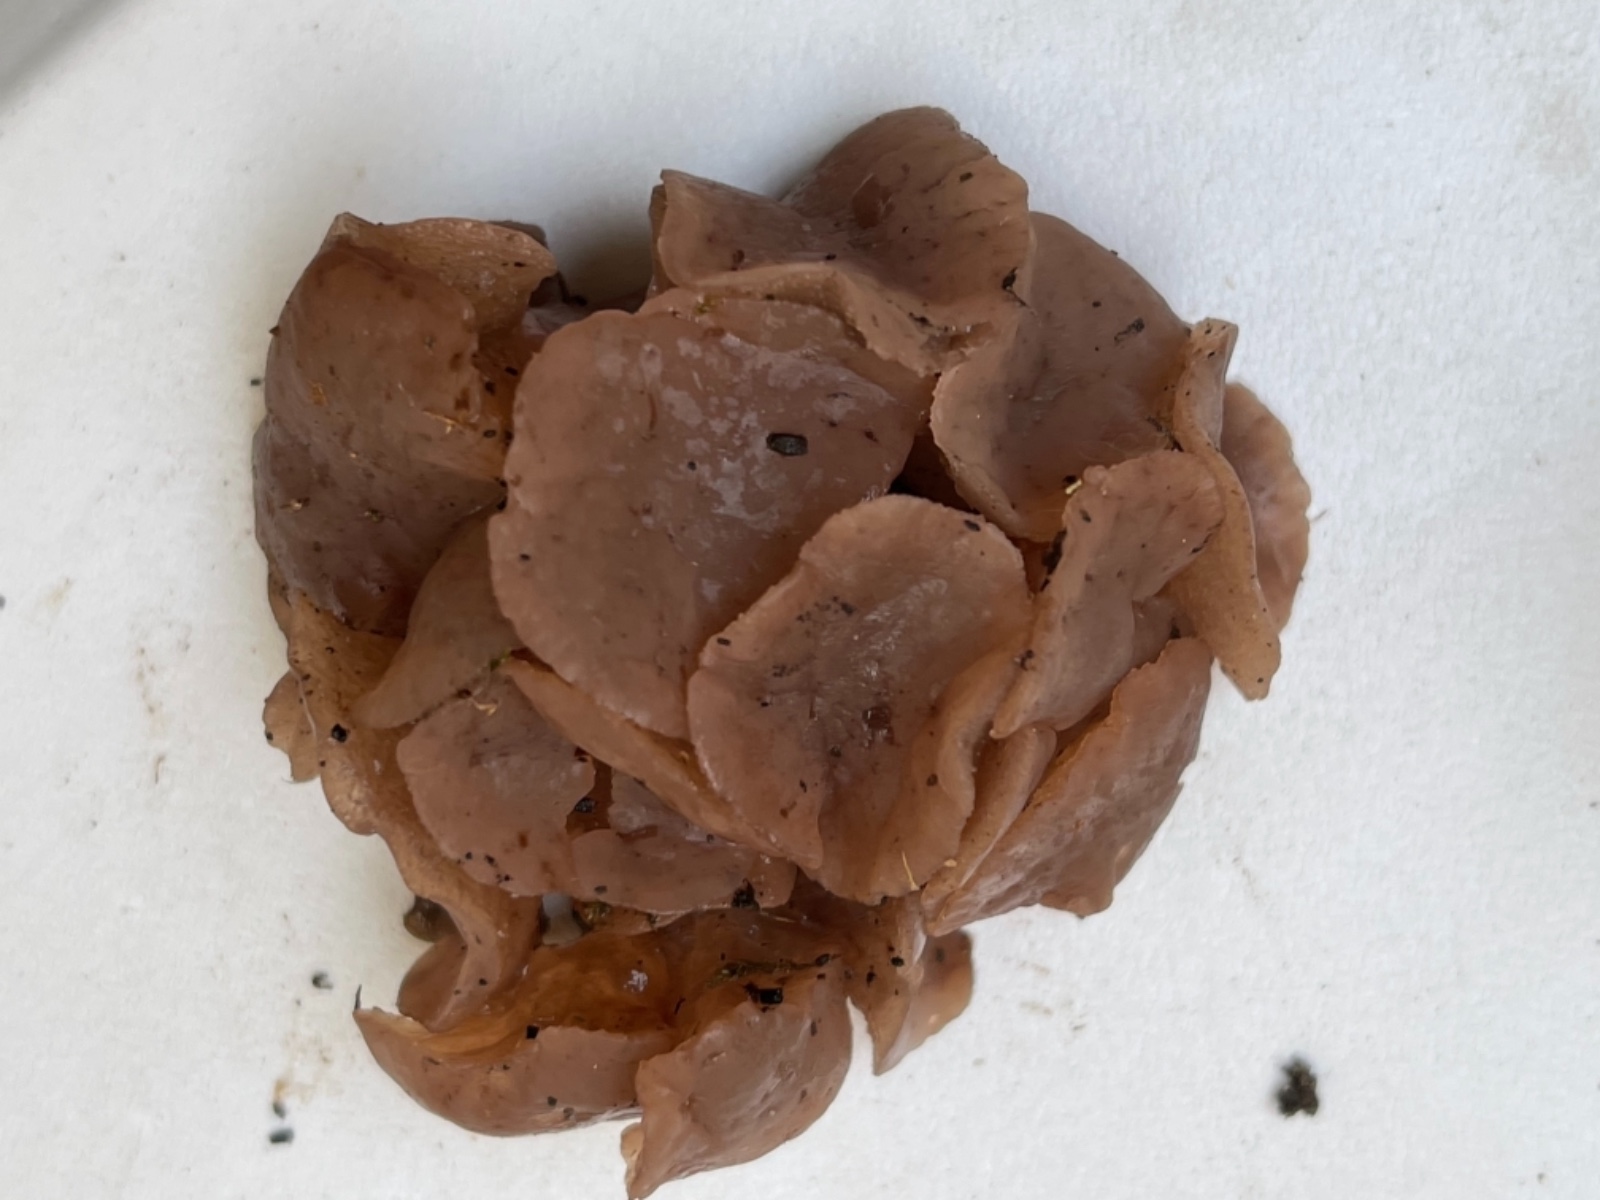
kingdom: Fungi
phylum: Ascomycota
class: Leotiomycetes
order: Helotiales
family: Gelatinodiscaceae
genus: Neobulgaria
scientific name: Neobulgaria pura
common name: bleg bævreskive
